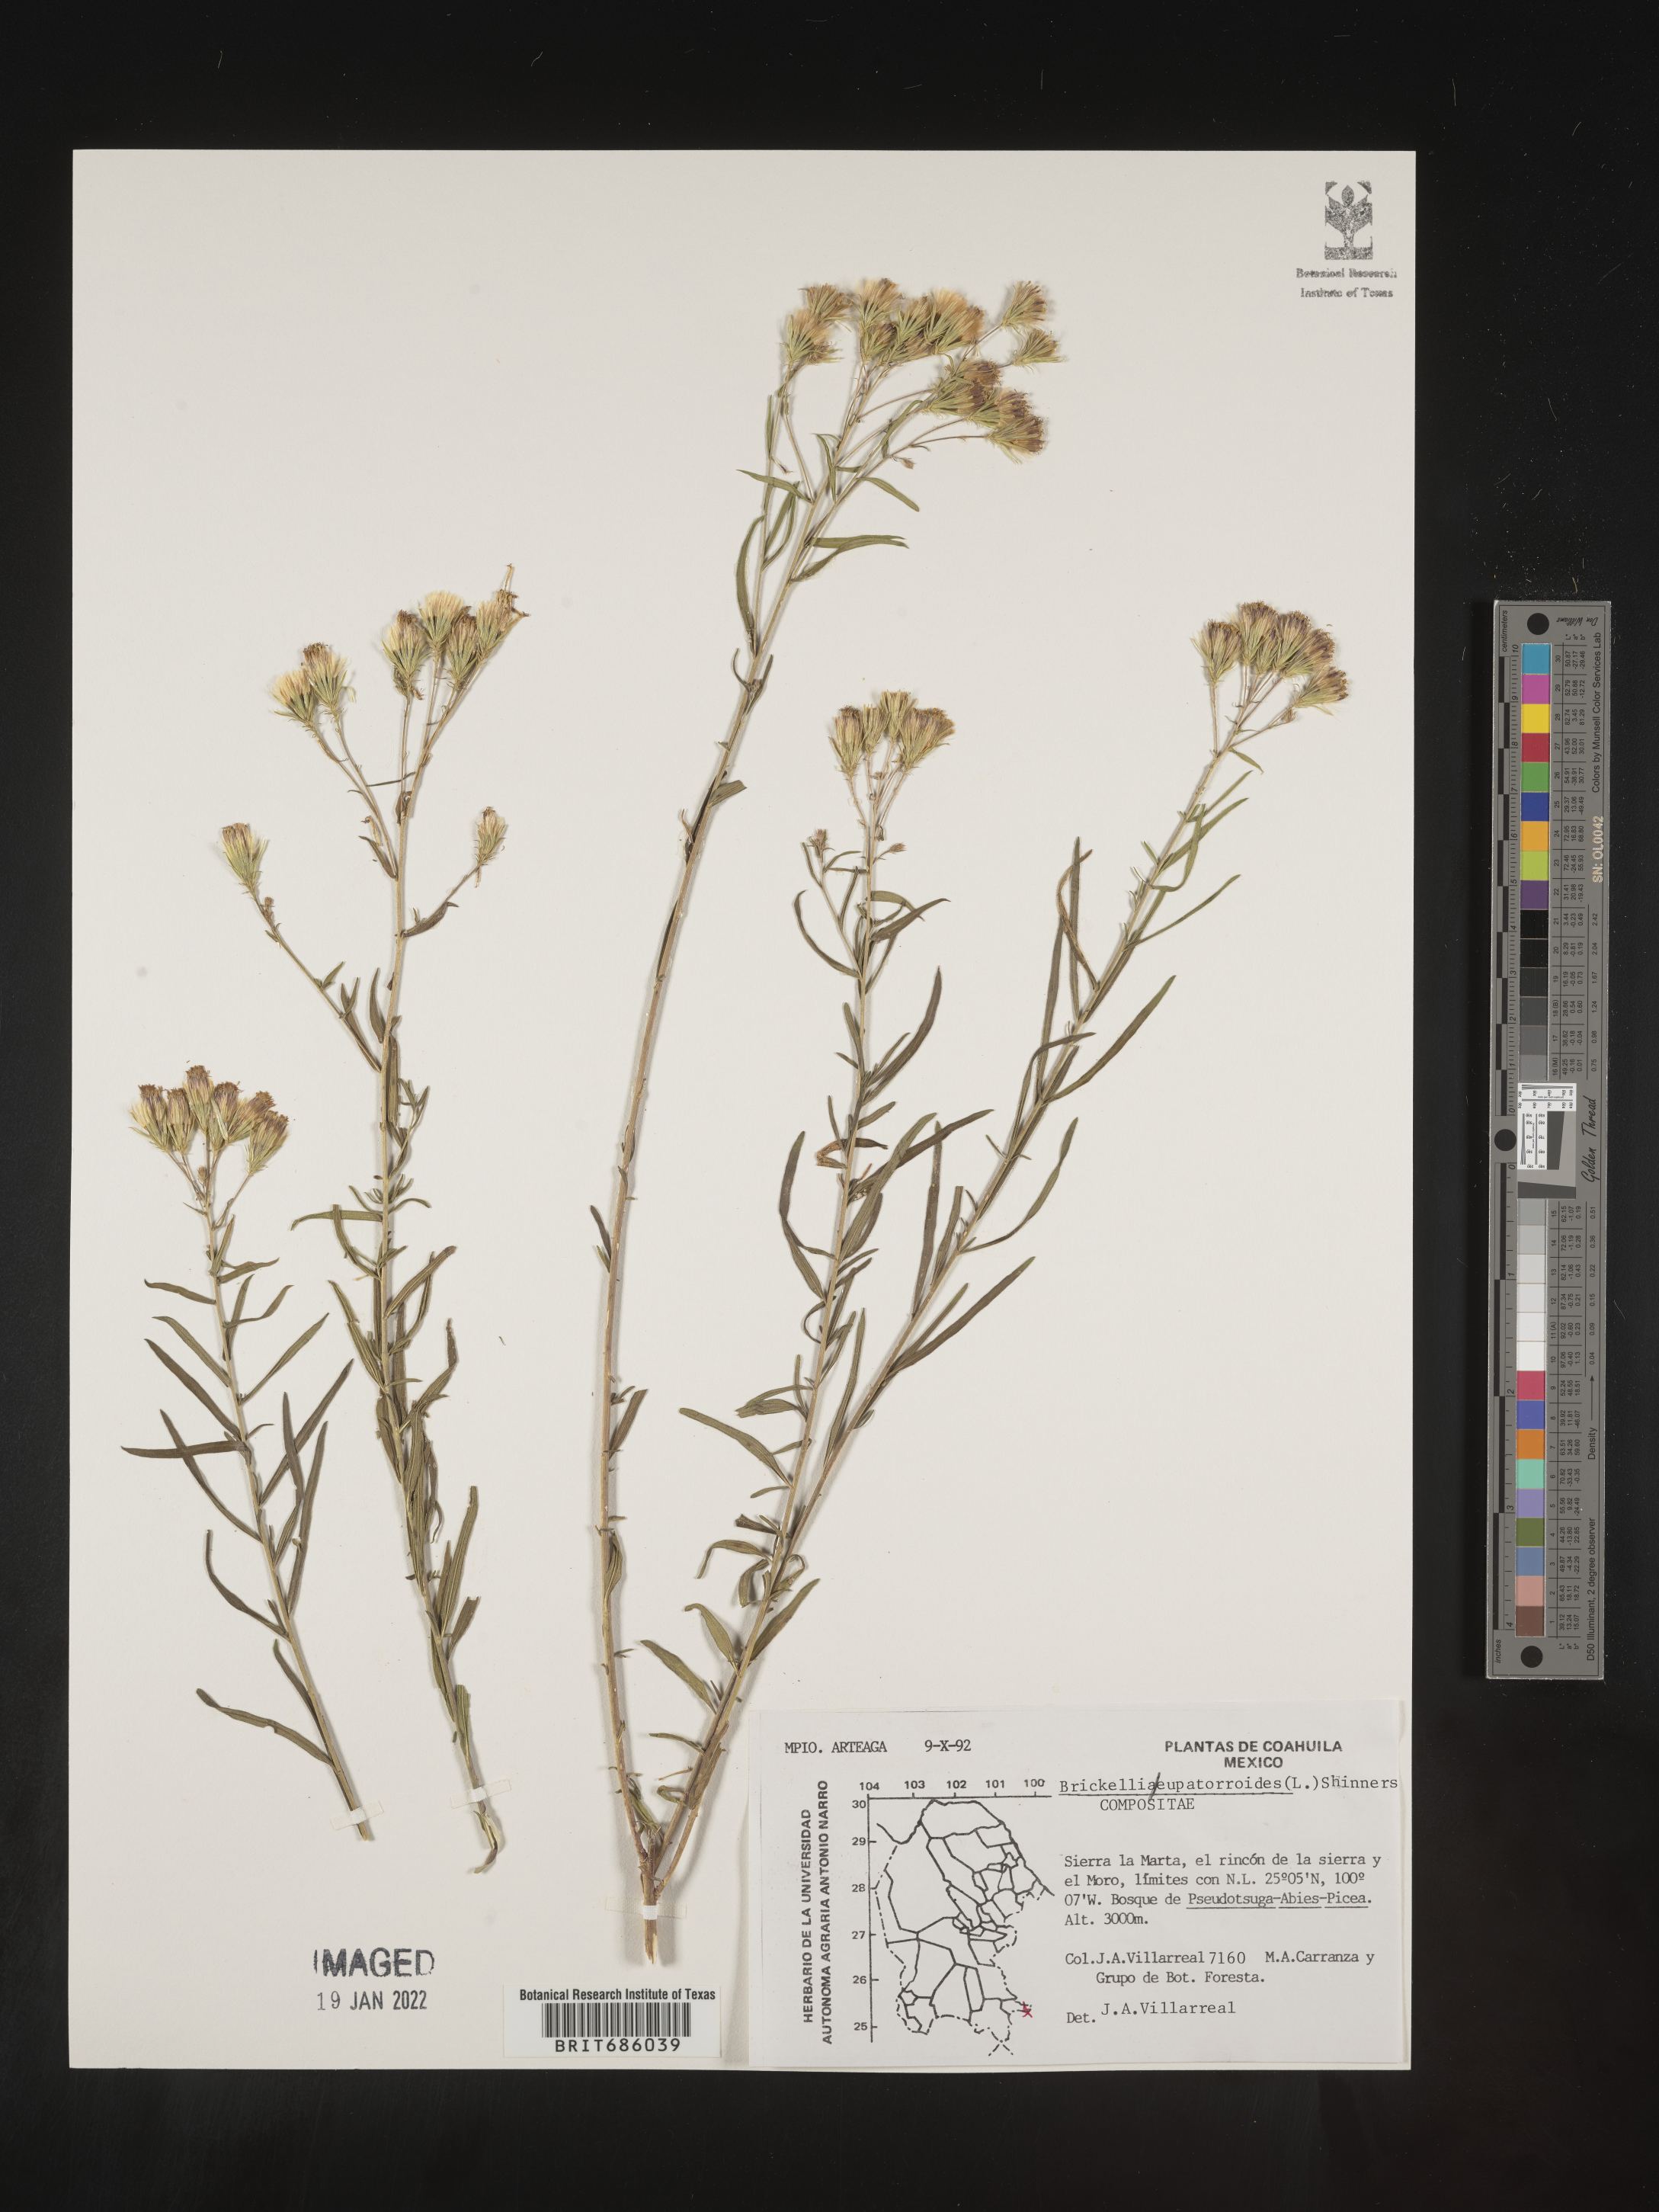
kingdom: Plantae
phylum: Tracheophyta
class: Magnoliopsida
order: Asterales
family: Asteraceae
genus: Brickellia
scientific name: Brickellia
